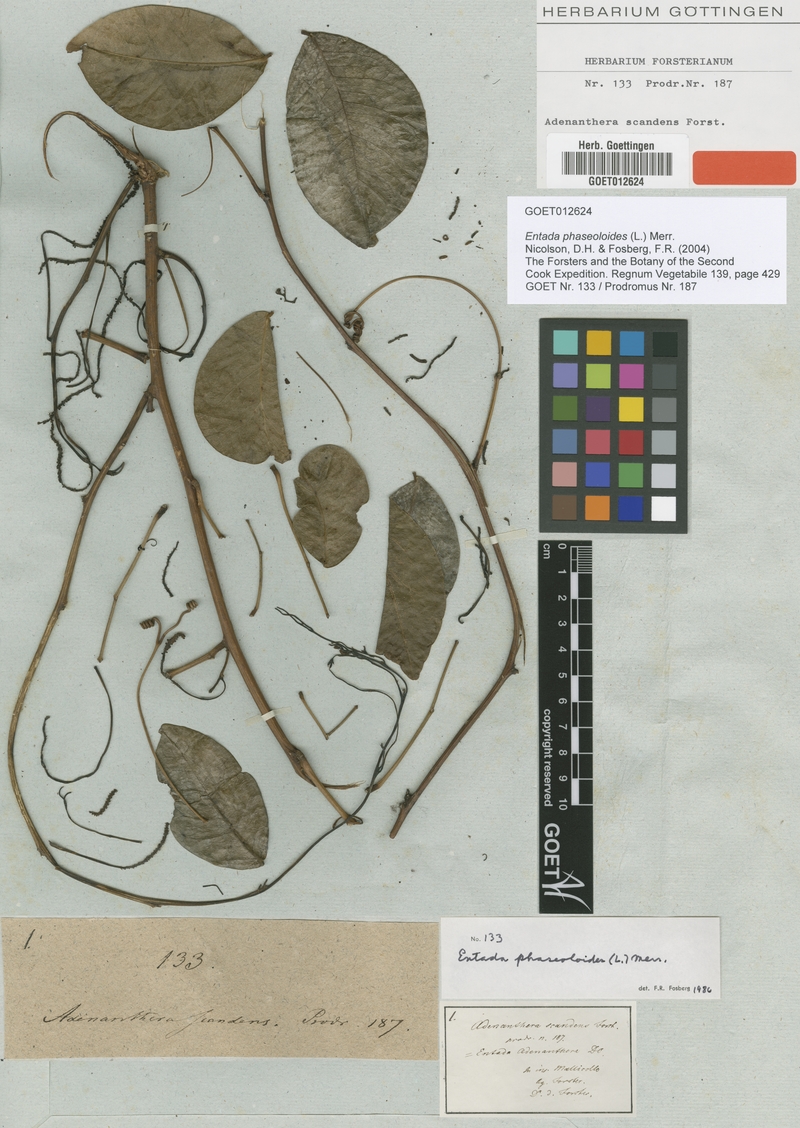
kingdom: Plantae
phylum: Tracheophyta
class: Magnoliopsida
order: Fabales
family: Fabaceae
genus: Entada
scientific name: Entada phaseoloides
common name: Matchbox-bean
